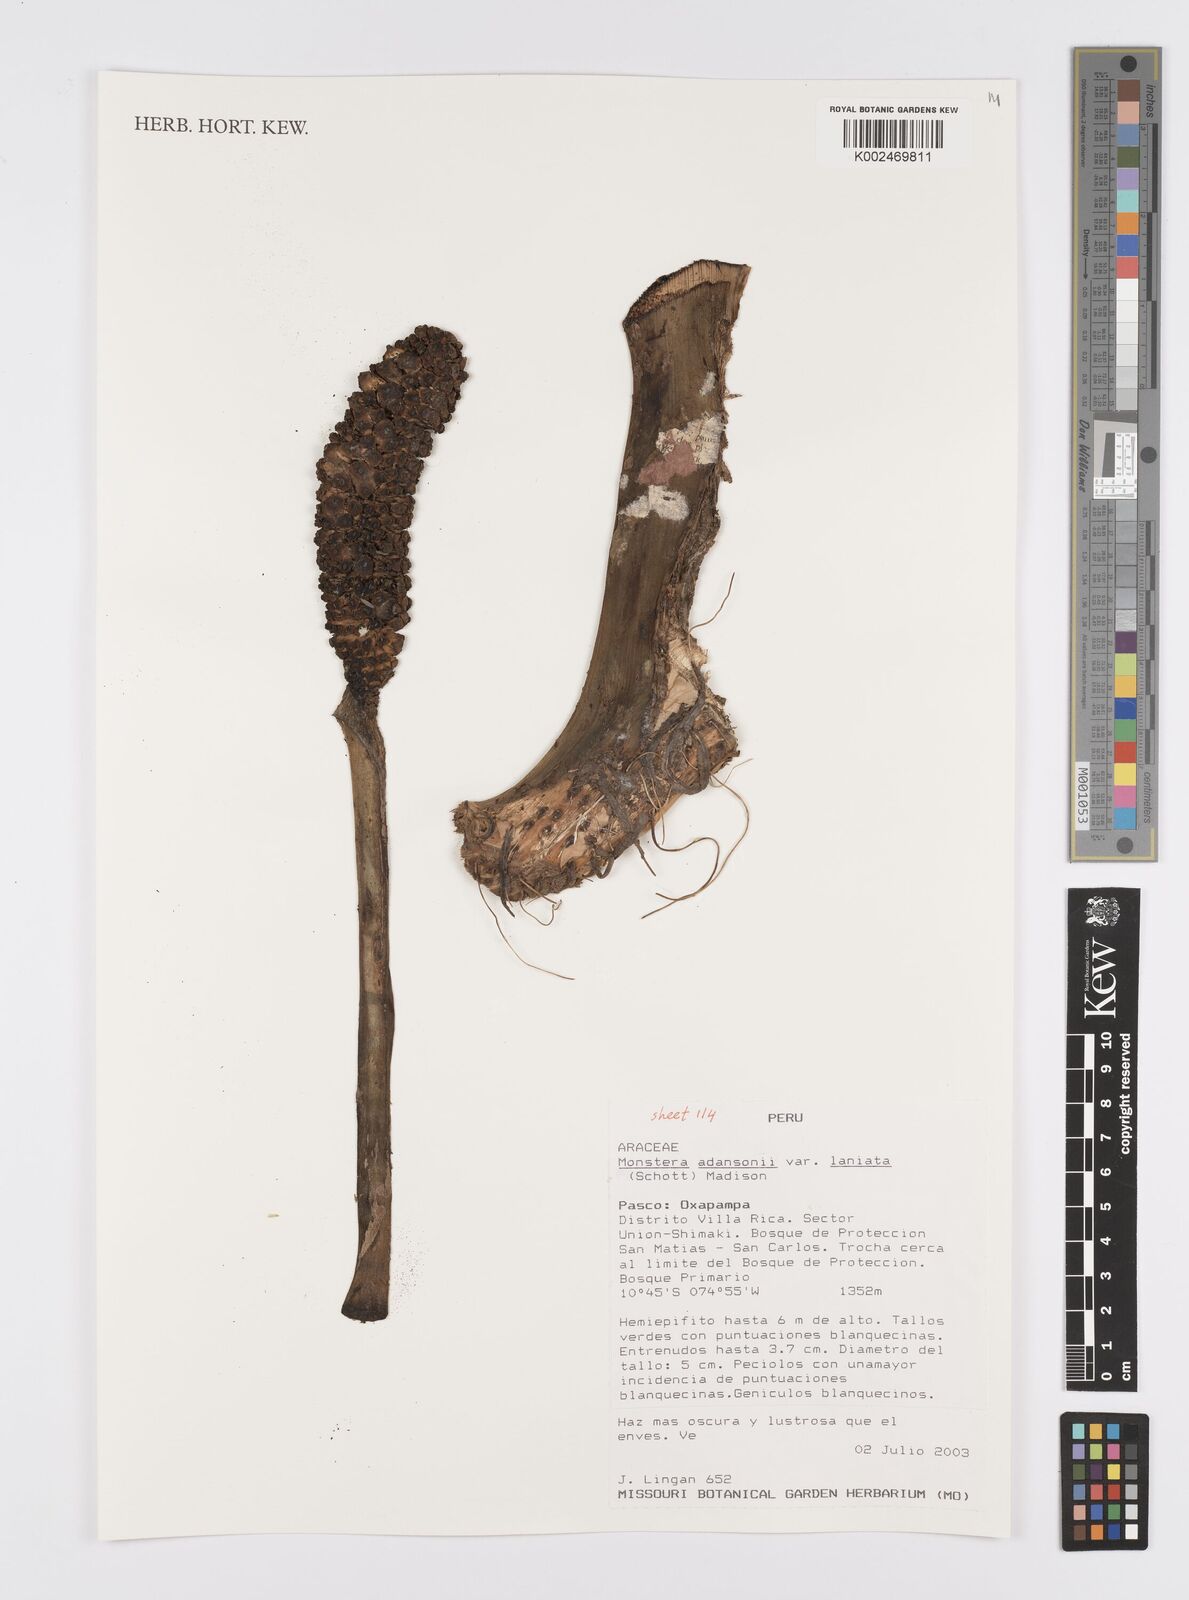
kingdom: Plantae
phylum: Tracheophyta
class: Liliopsida
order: Alismatales
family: Araceae
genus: Monstera
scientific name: Monstera adansonii
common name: Tarovine
